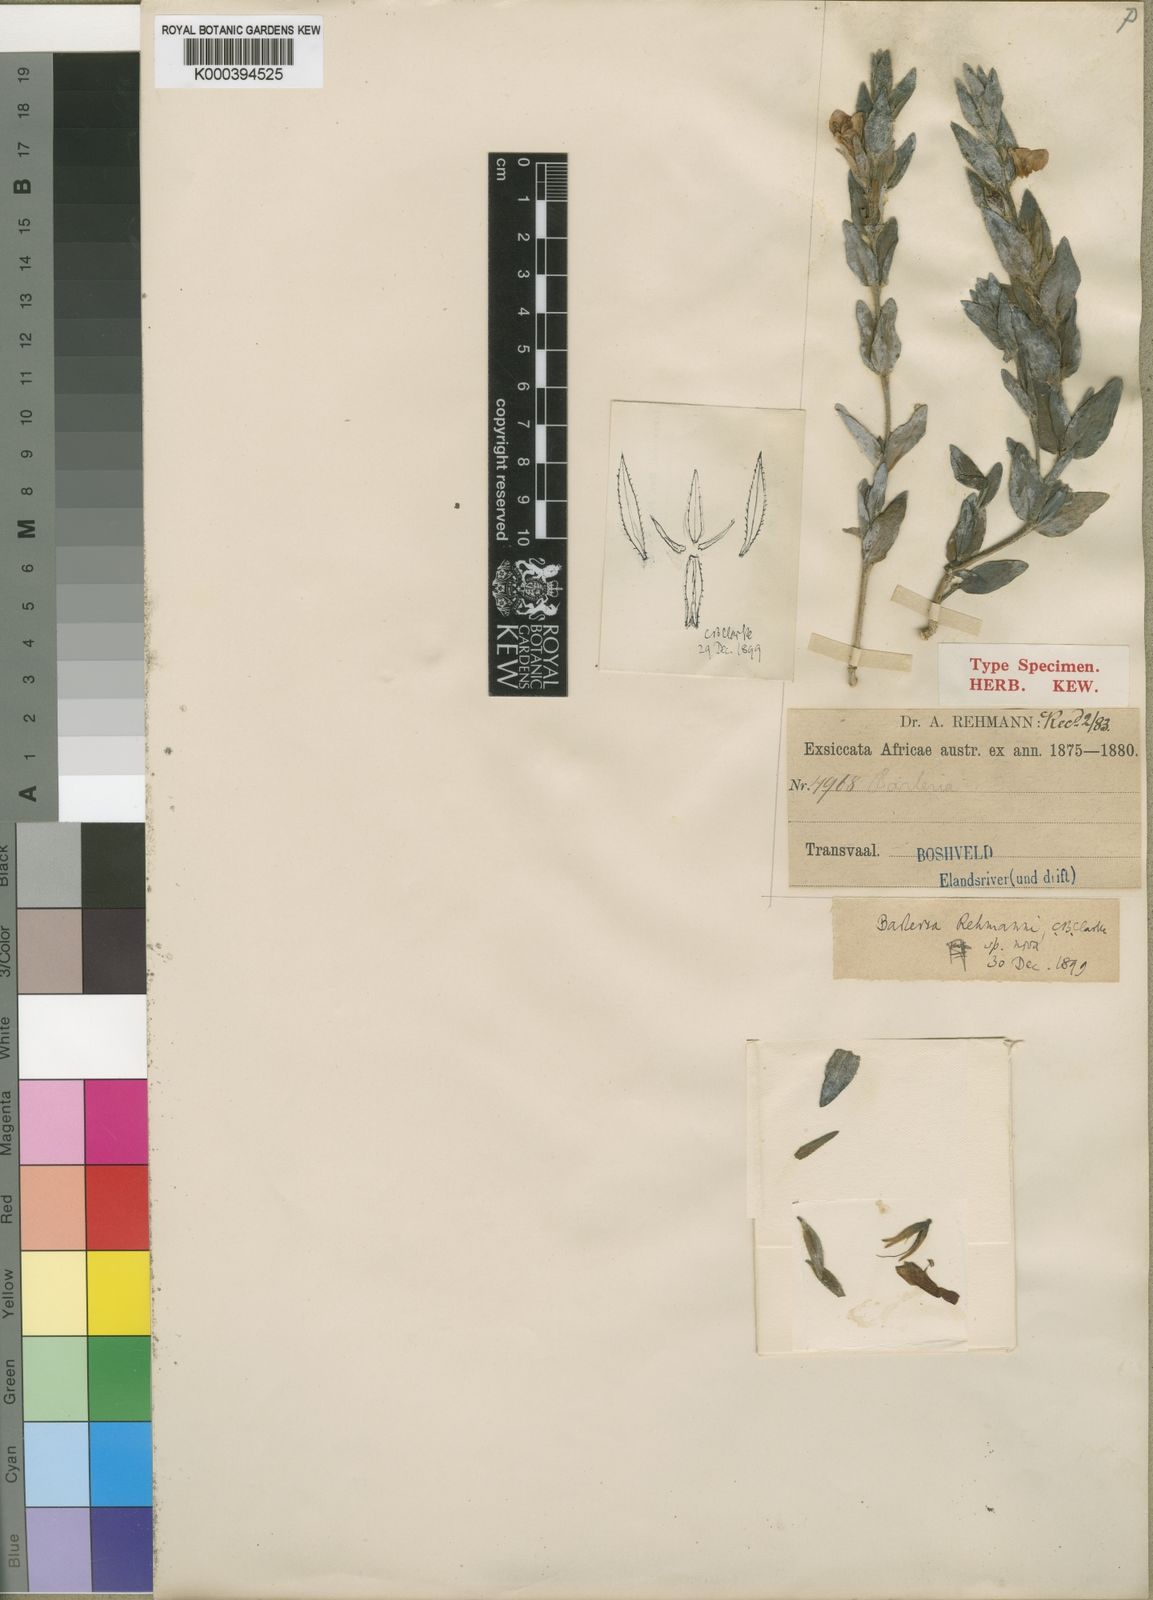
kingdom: Plantae
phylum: Tracheophyta
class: Magnoliopsida
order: Lamiales
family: Acanthaceae
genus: Barleria
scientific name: Barleria rehmannii
